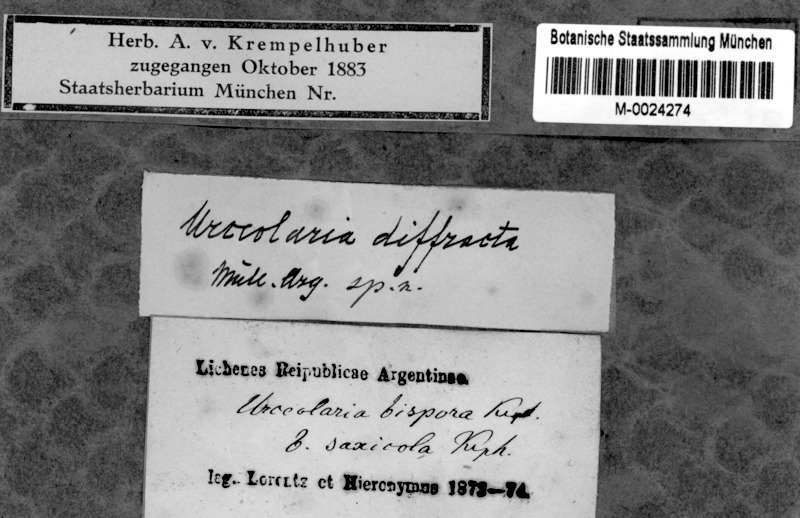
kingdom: Fungi
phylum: Ascomycota
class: Lecanoromycetes
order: Ostropales
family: Stictidaceae
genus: Ingvariella
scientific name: Ingvariella bispora
